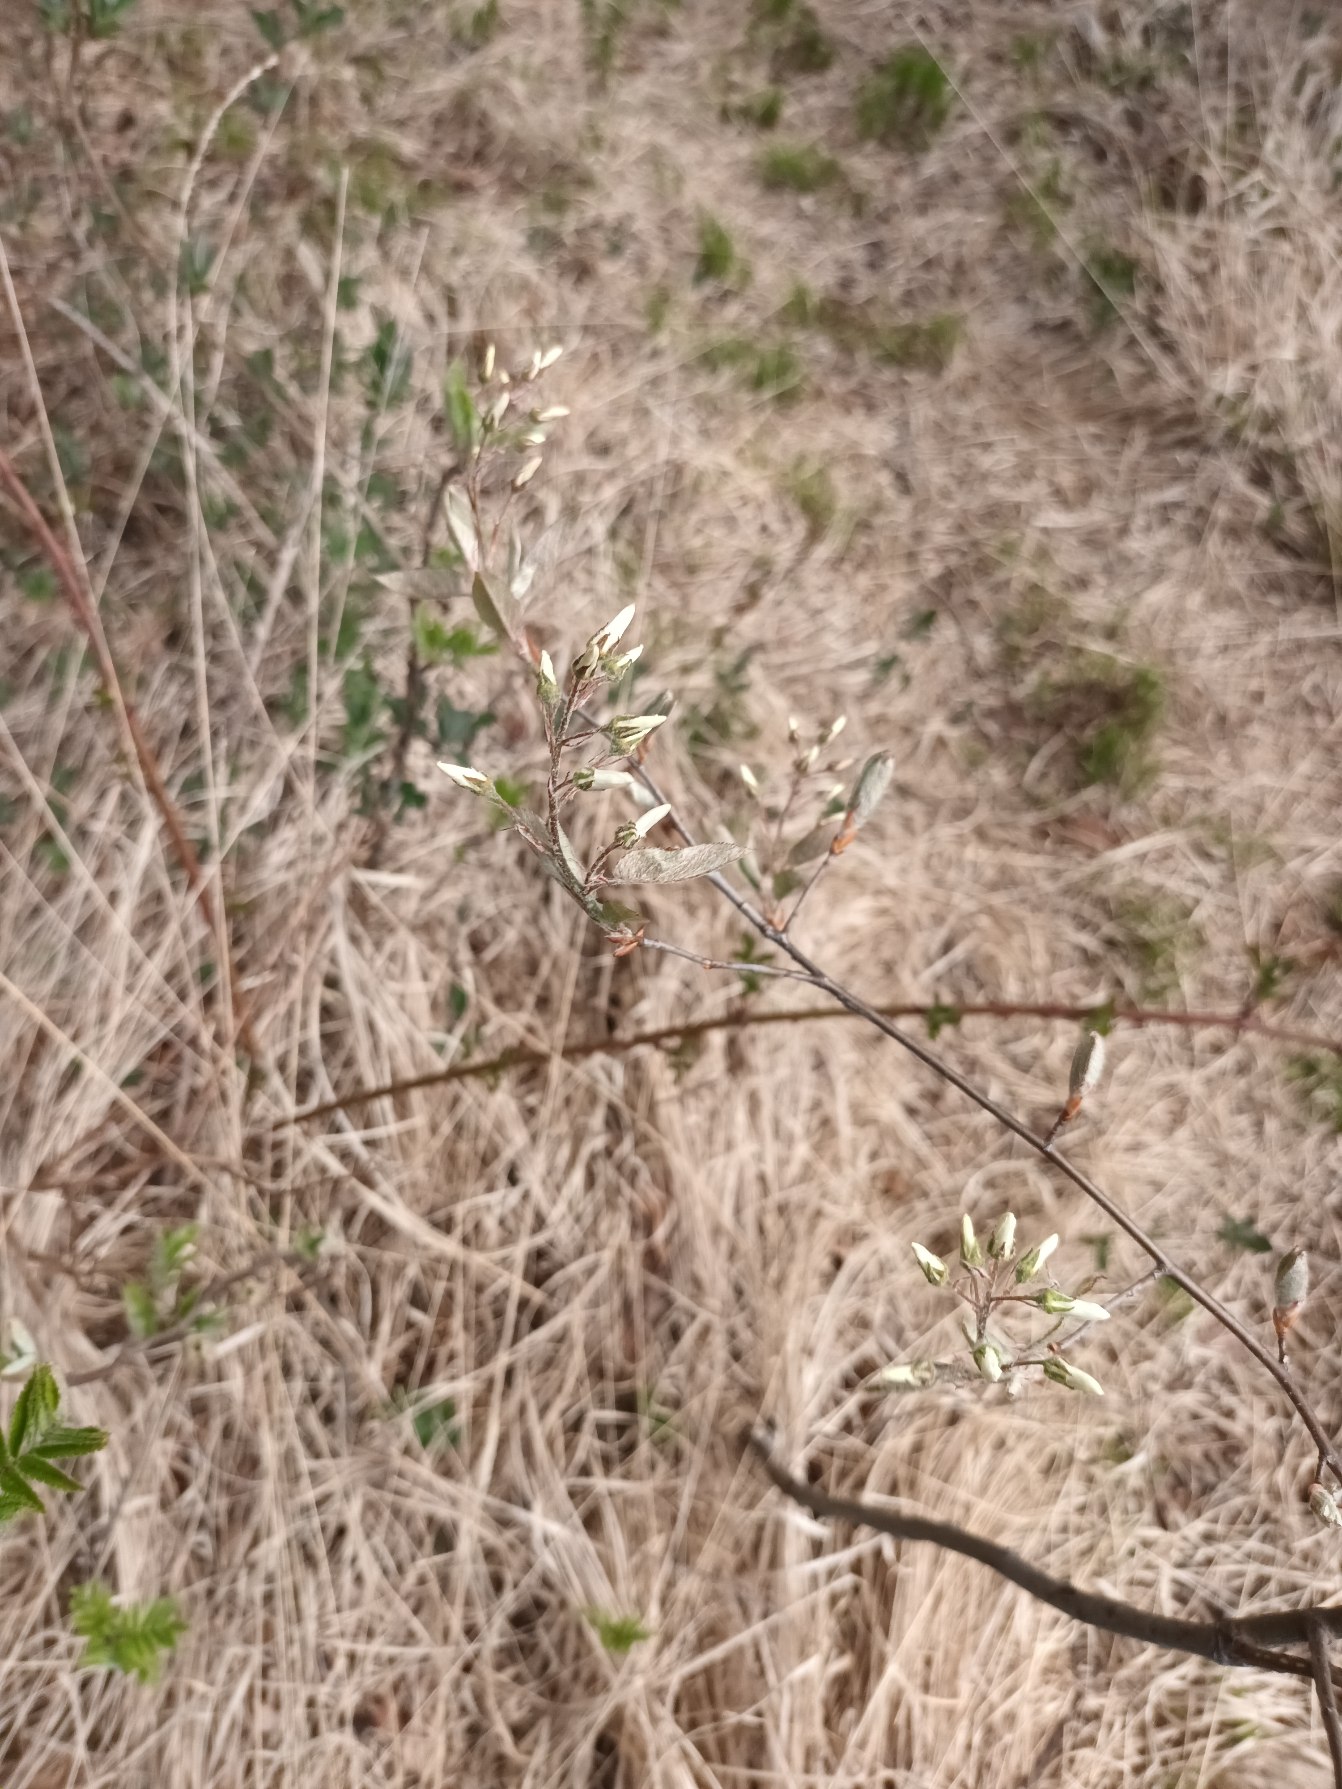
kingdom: Plantae
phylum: Tracheophyta
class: Magnoliopsida
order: Rosales
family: Rosaceae
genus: Amelanchier
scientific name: Amelanchier lamarckii
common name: Bærmispel
